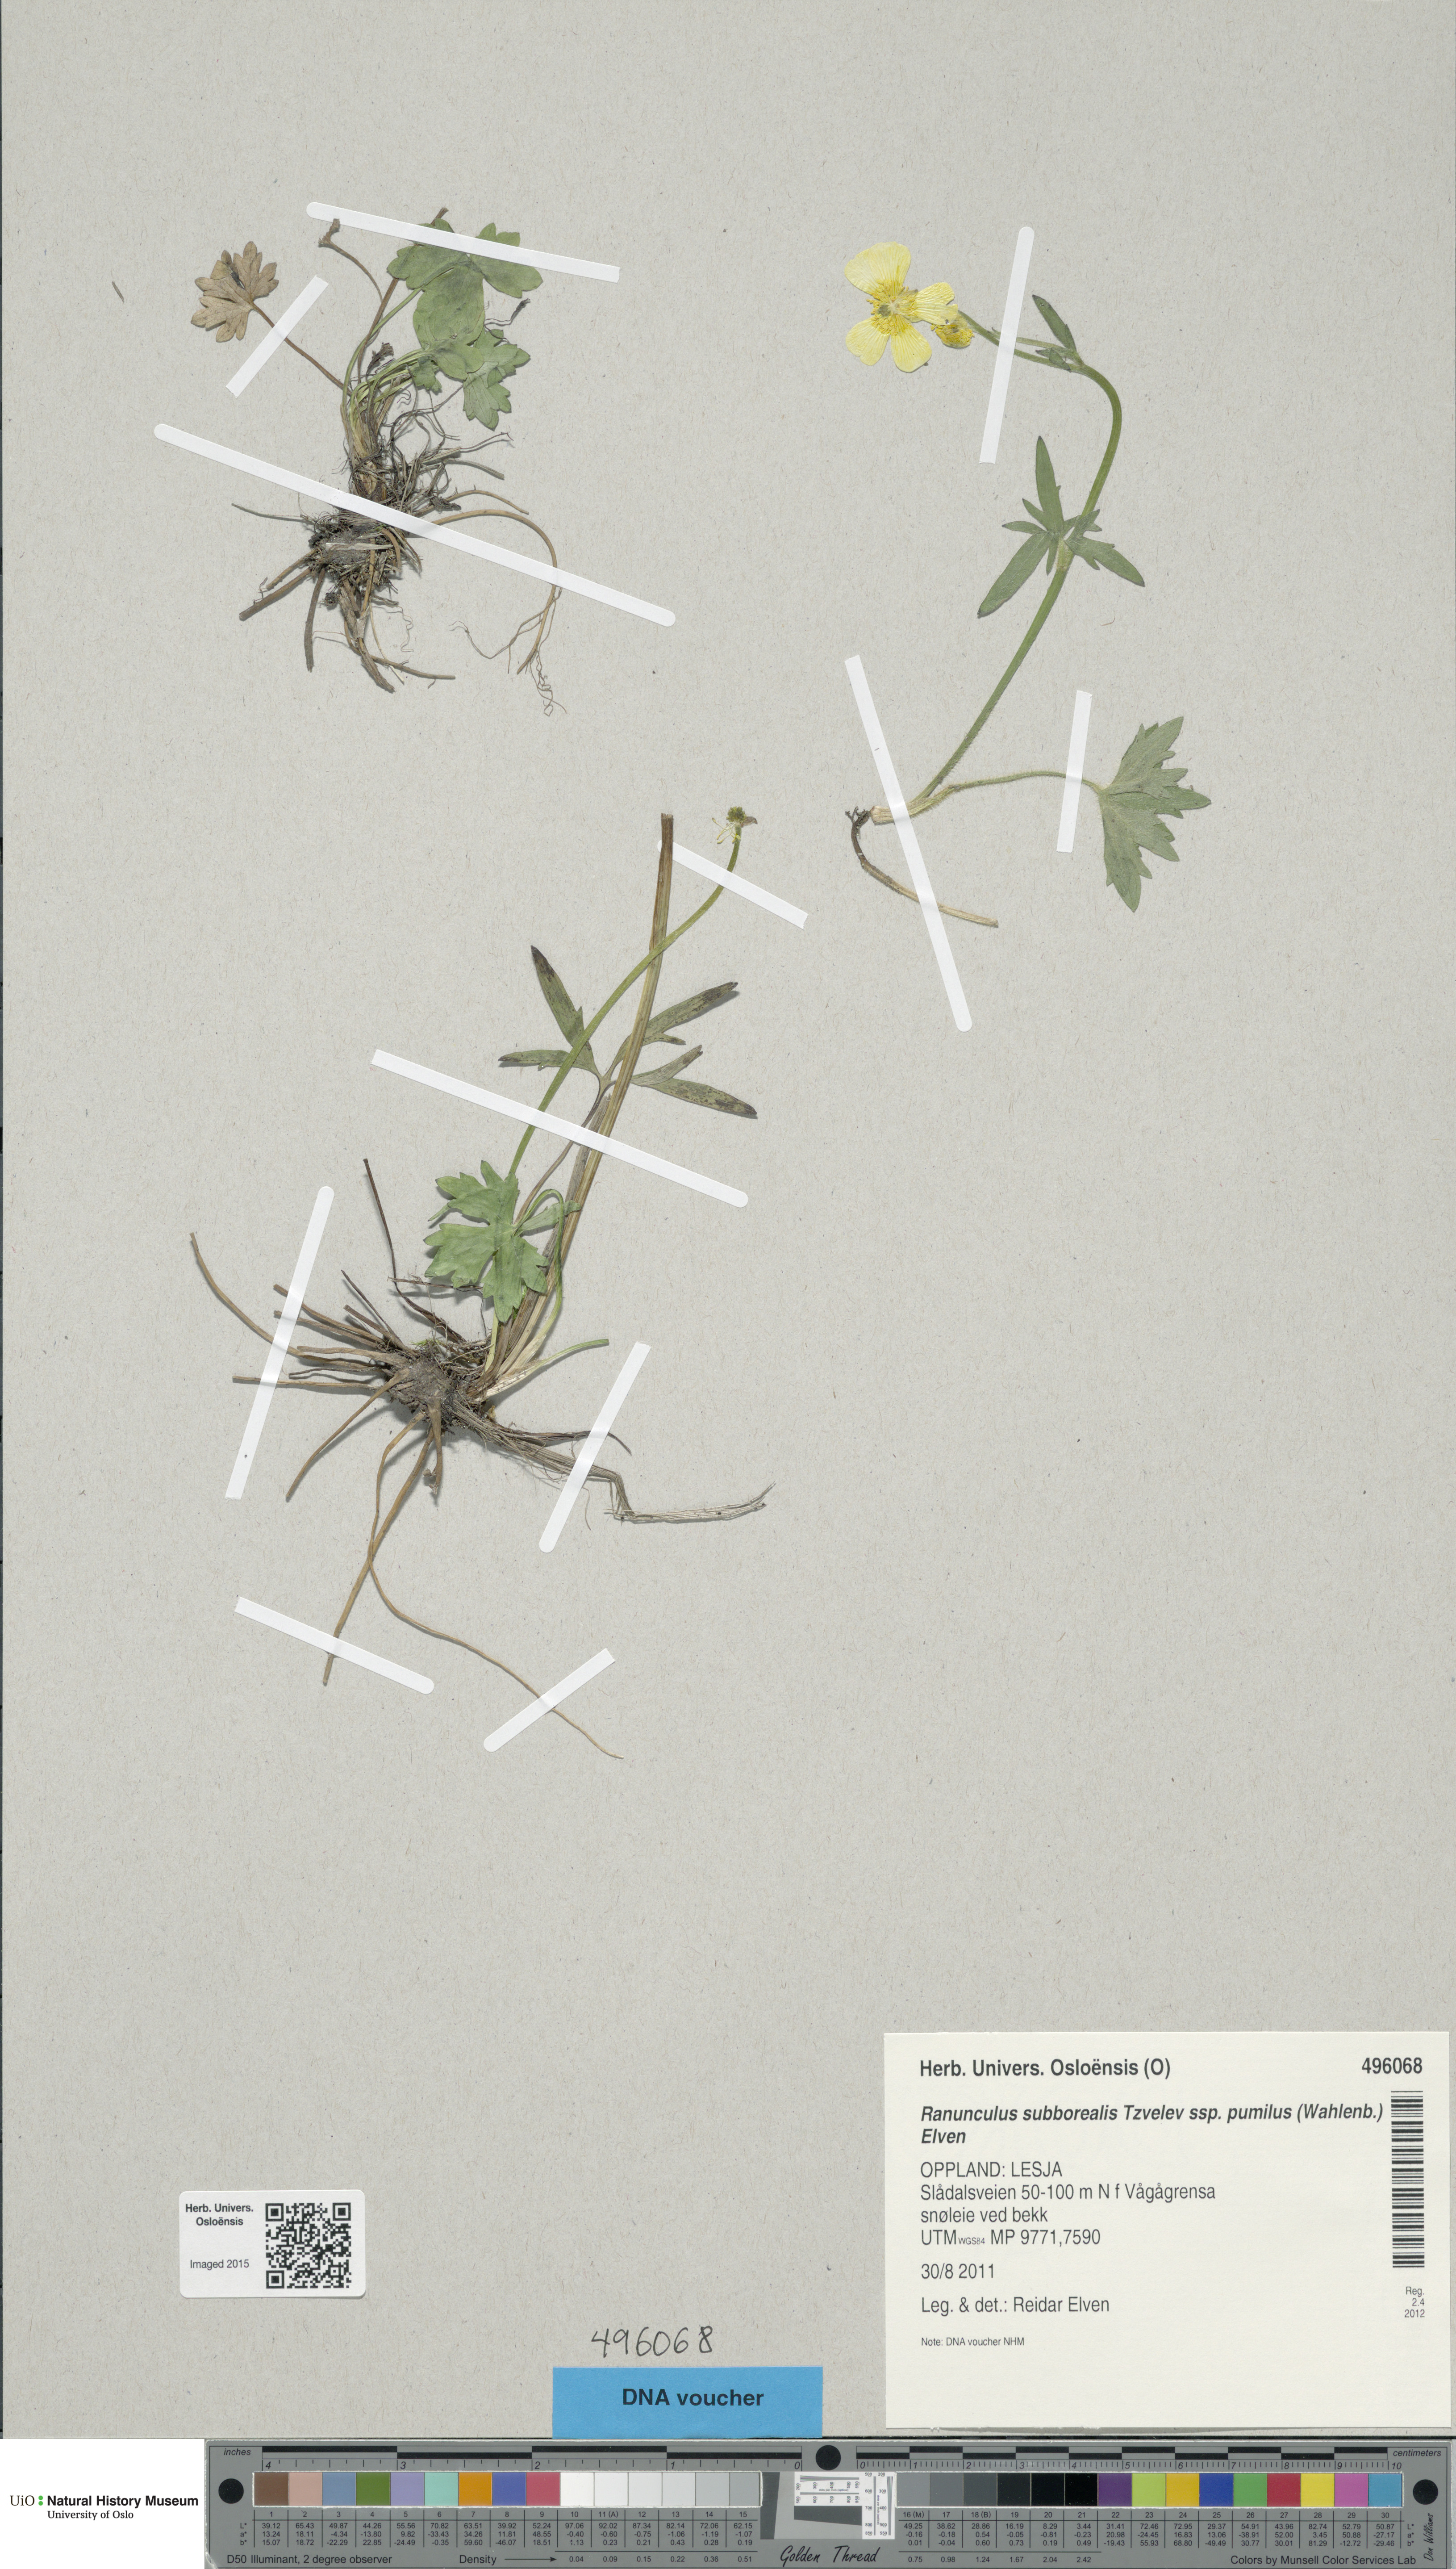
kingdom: Plantae
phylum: Tracheophyta
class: Magnoliopsida
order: Ranunculales
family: Ranunculaceae
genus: Ranunculus
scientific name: Ranunculus
